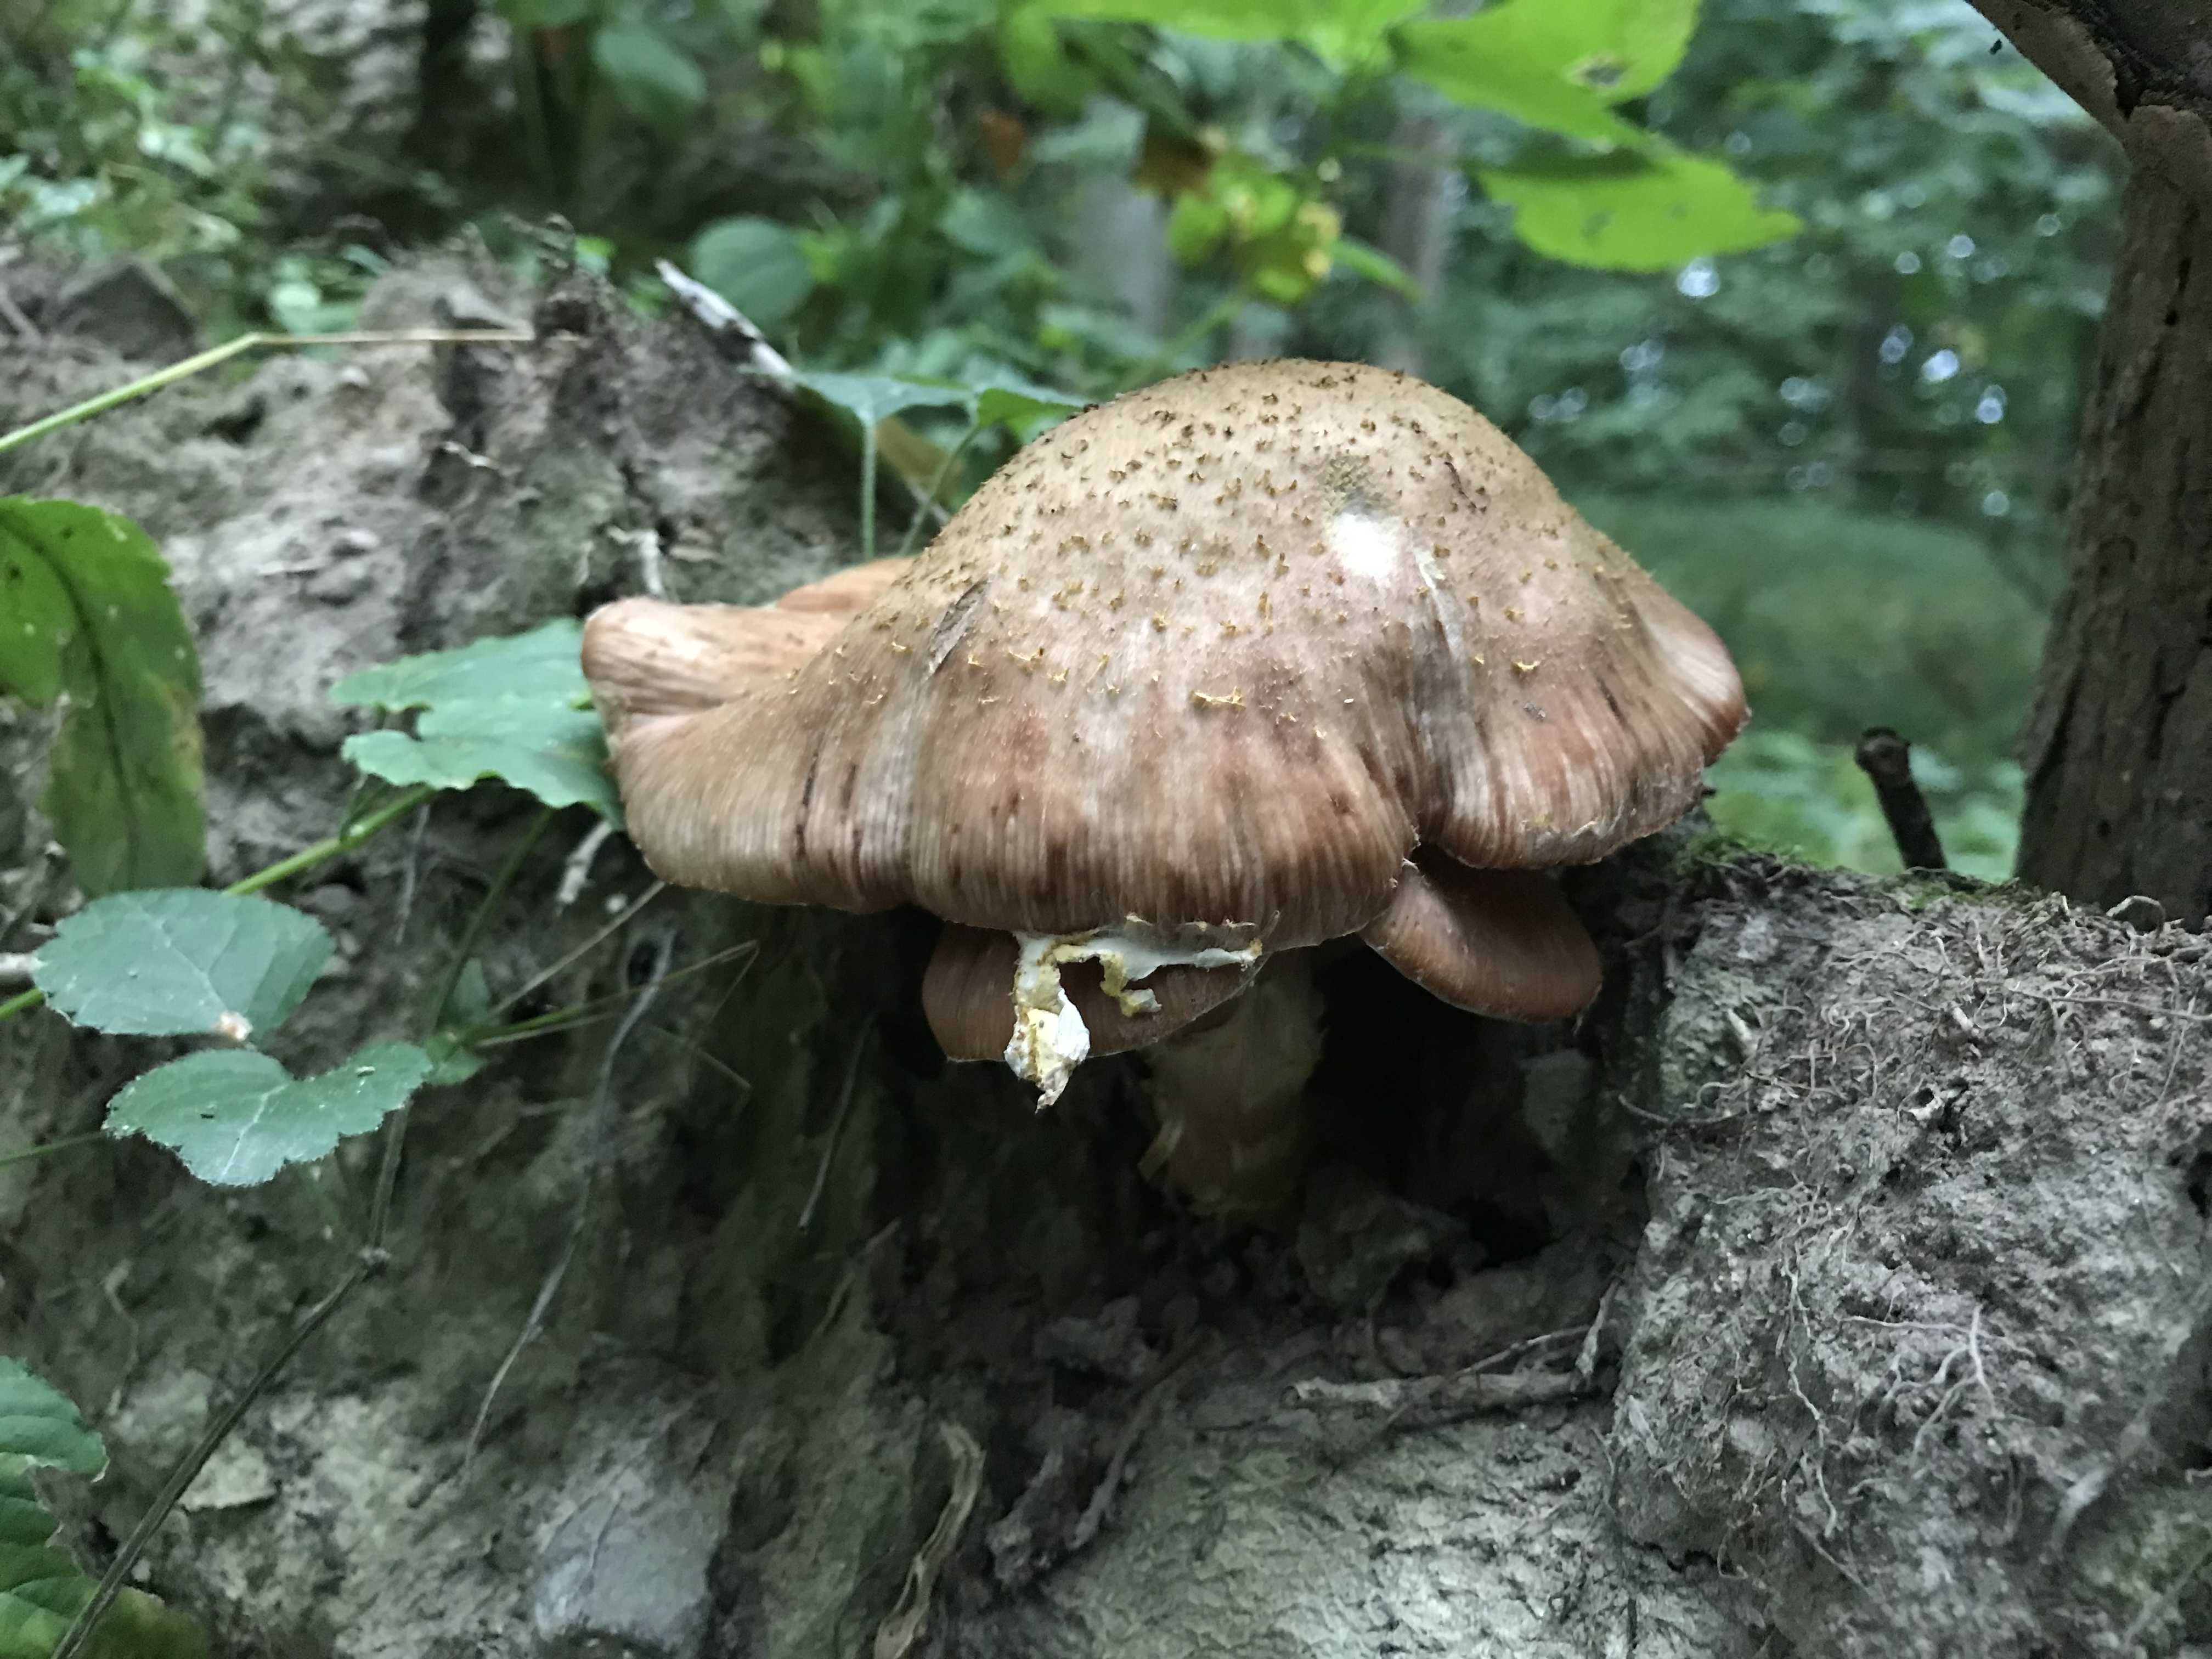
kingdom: Fungi
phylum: Basidiomycota
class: Agaricomycetes
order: Agaricales
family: Physalacriaceae
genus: Armillaria
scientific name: Armillaria lutea
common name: køllestokket honningsvamp
